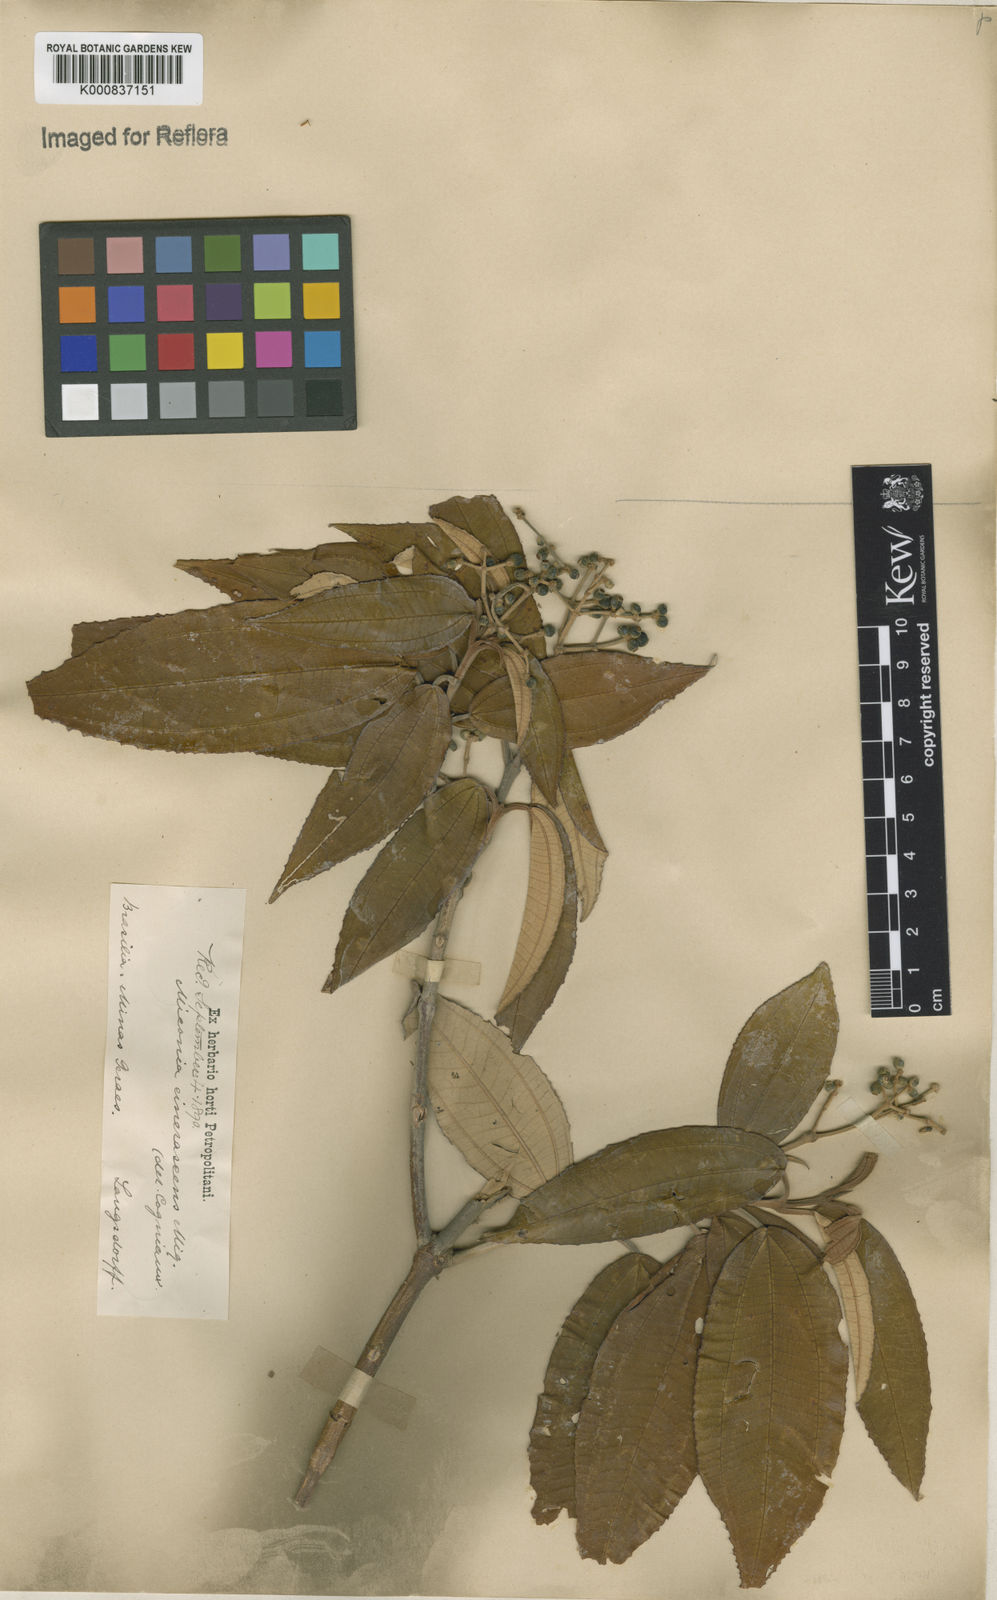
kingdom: Plantae
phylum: Tracheophyta
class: Magnoliopsida
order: Myrtales
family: Melastomataceae
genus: Miconia
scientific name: Miconia cinerascens
